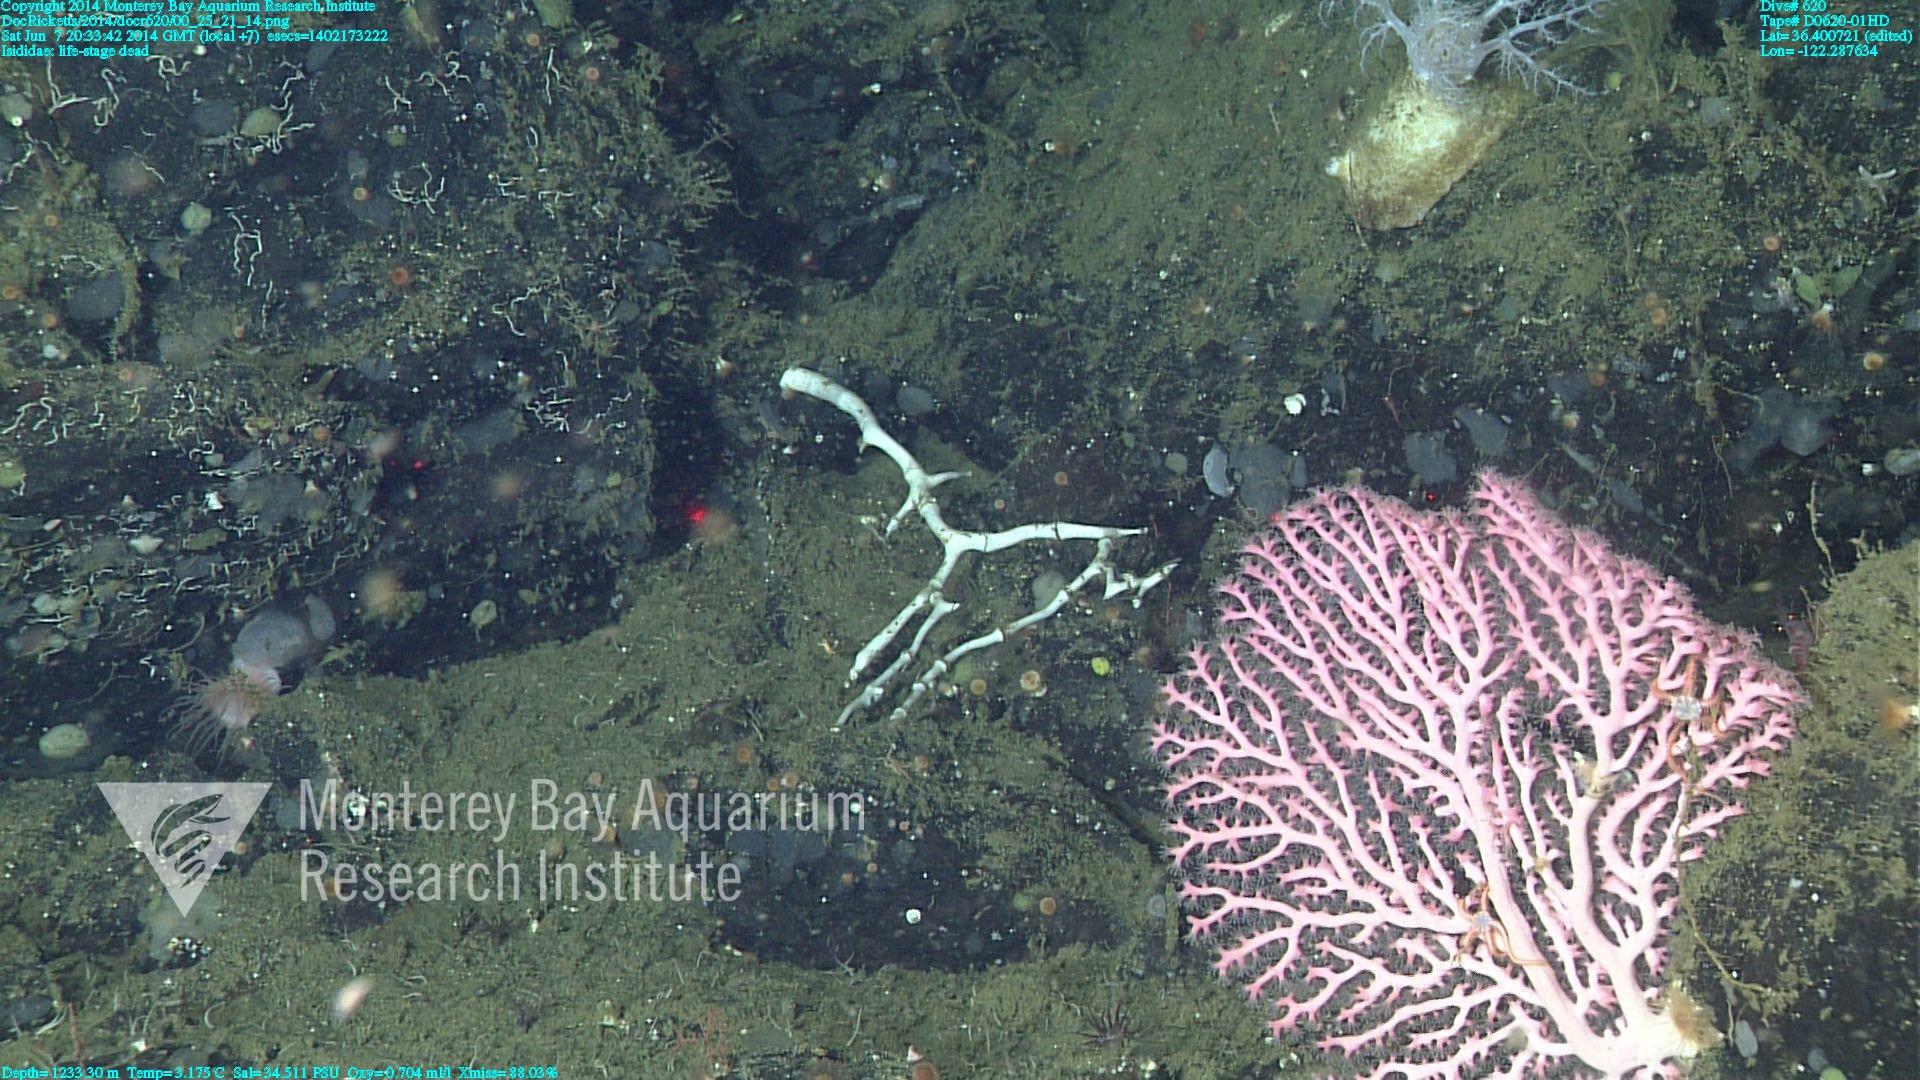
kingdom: Animalia
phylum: Cnidaria
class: Anthozoa
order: Scleralcyonacea
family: Keratoisididae
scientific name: Keratoisididae
